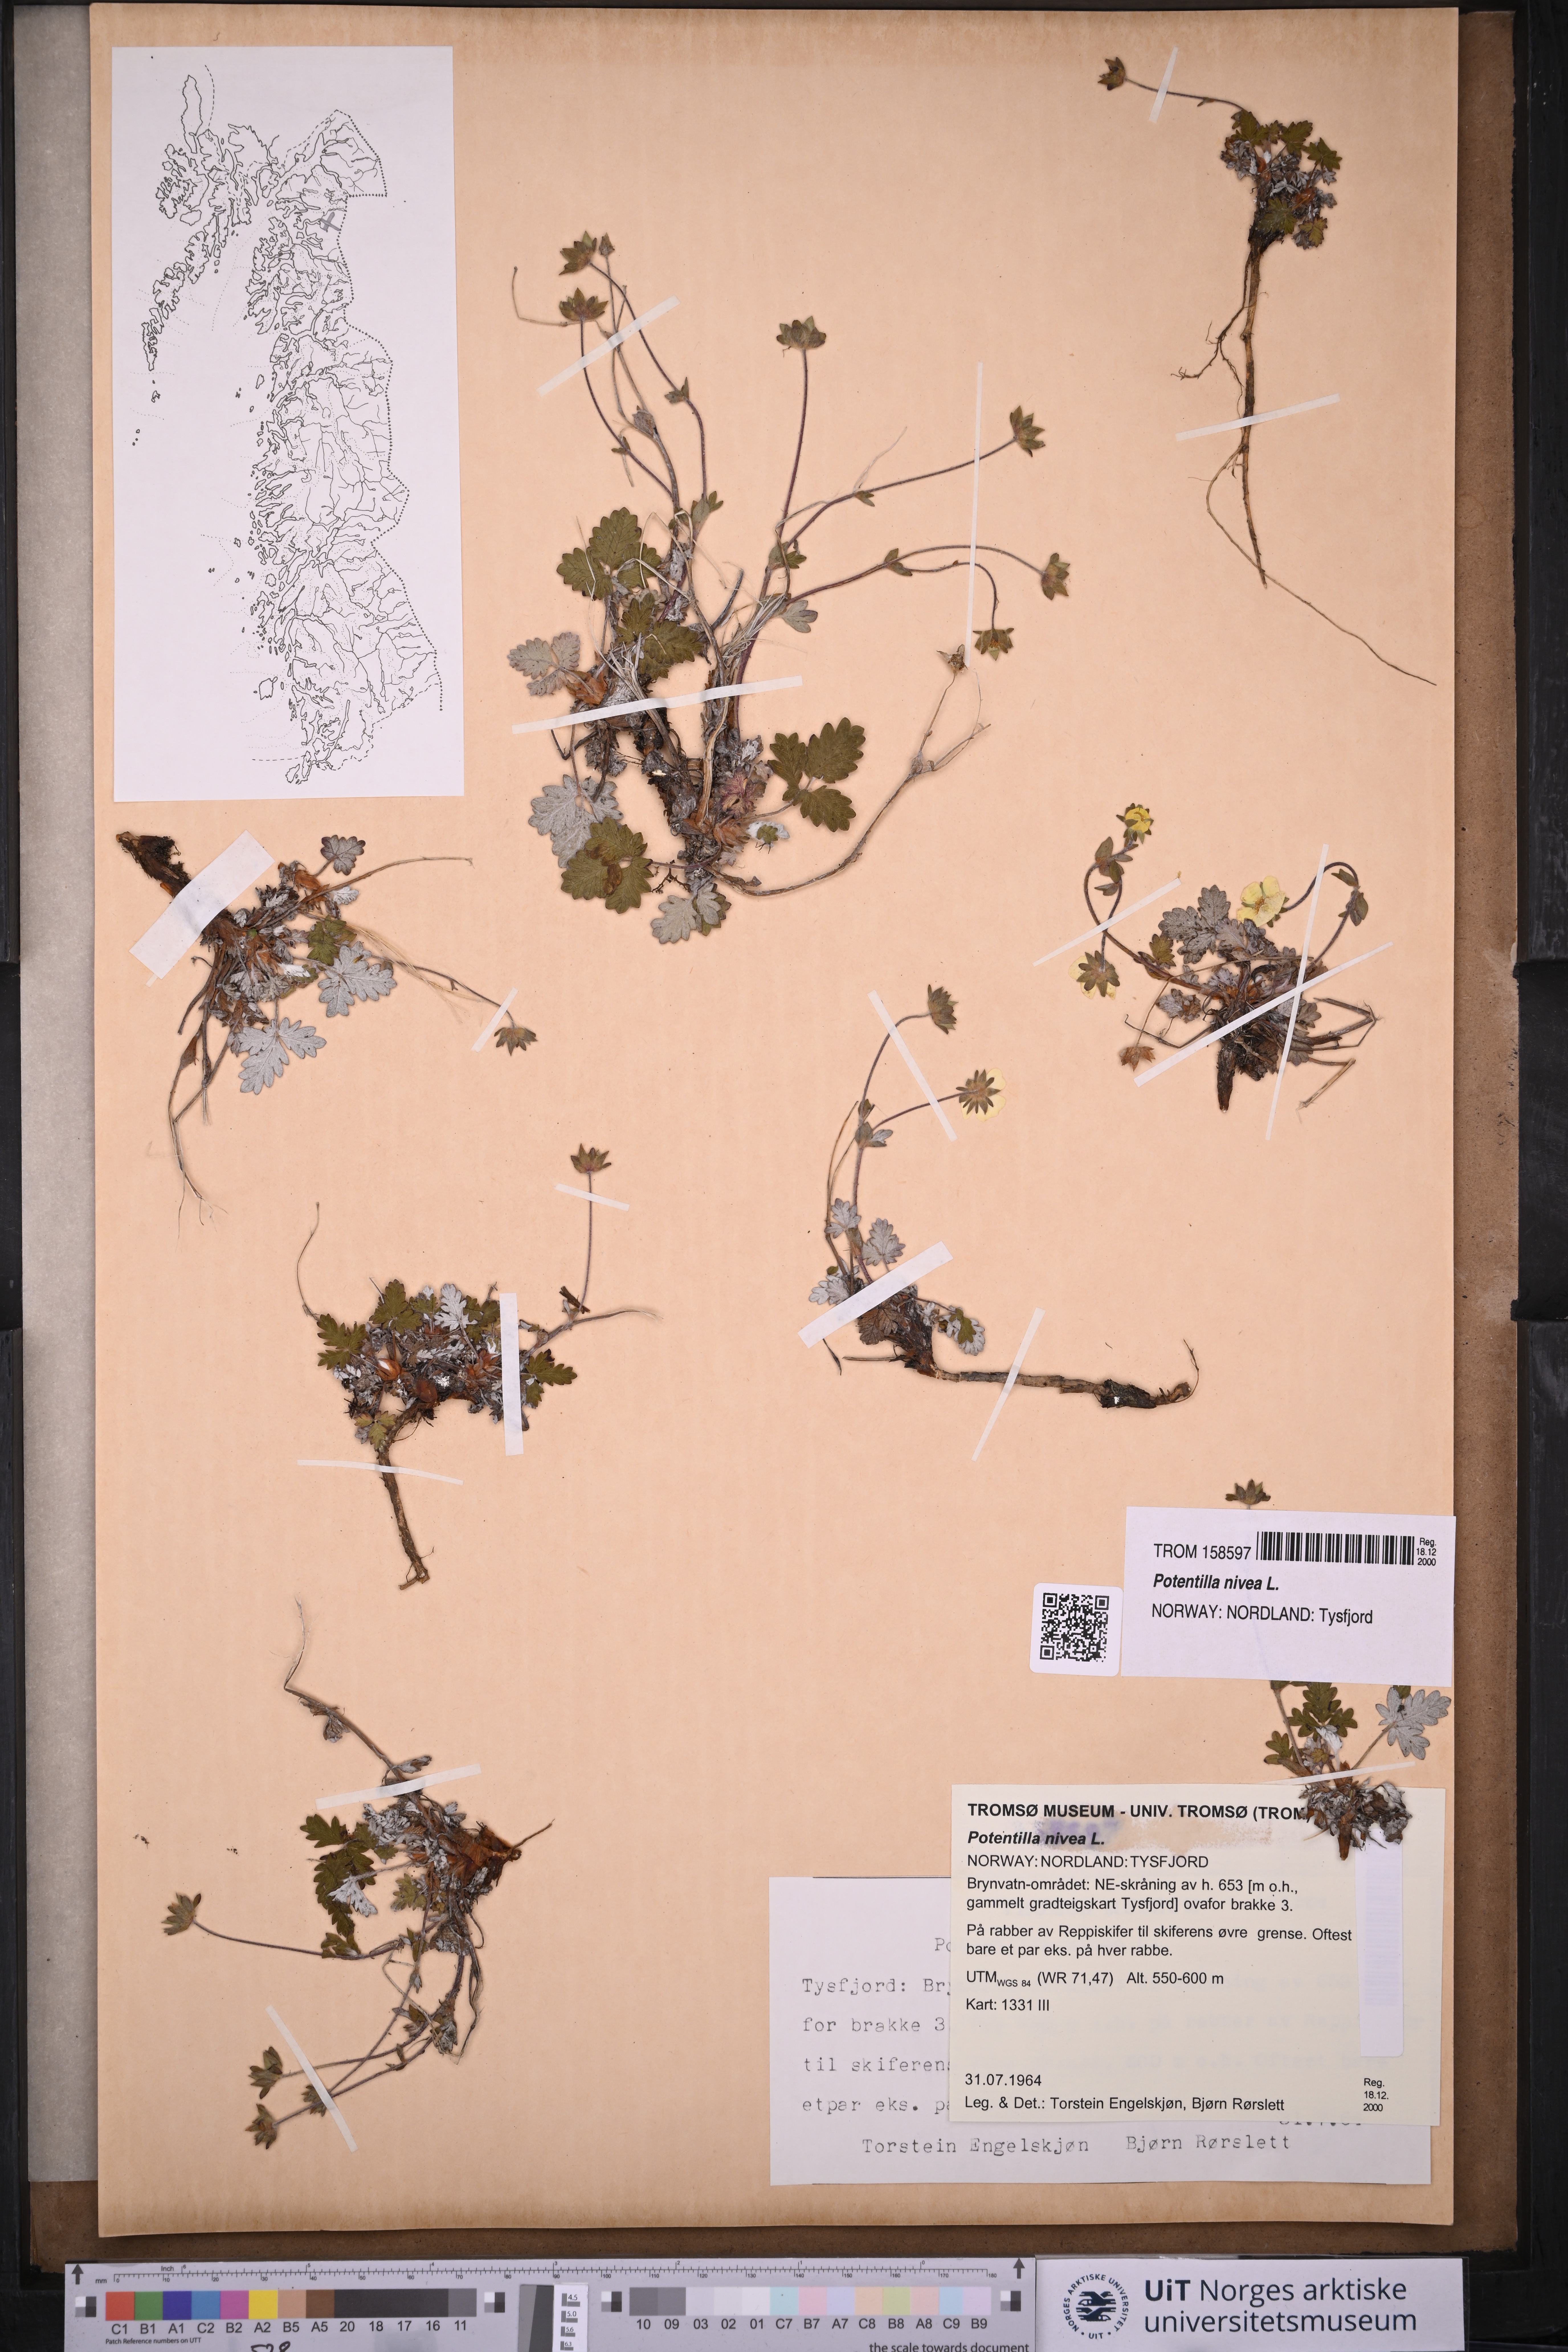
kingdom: Plantae
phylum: Tracheophyta
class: Magnoliopsida
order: Rosales
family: Rosaceae
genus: Potentilla
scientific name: Potentilla arenosa
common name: Bluff cinquefoil
